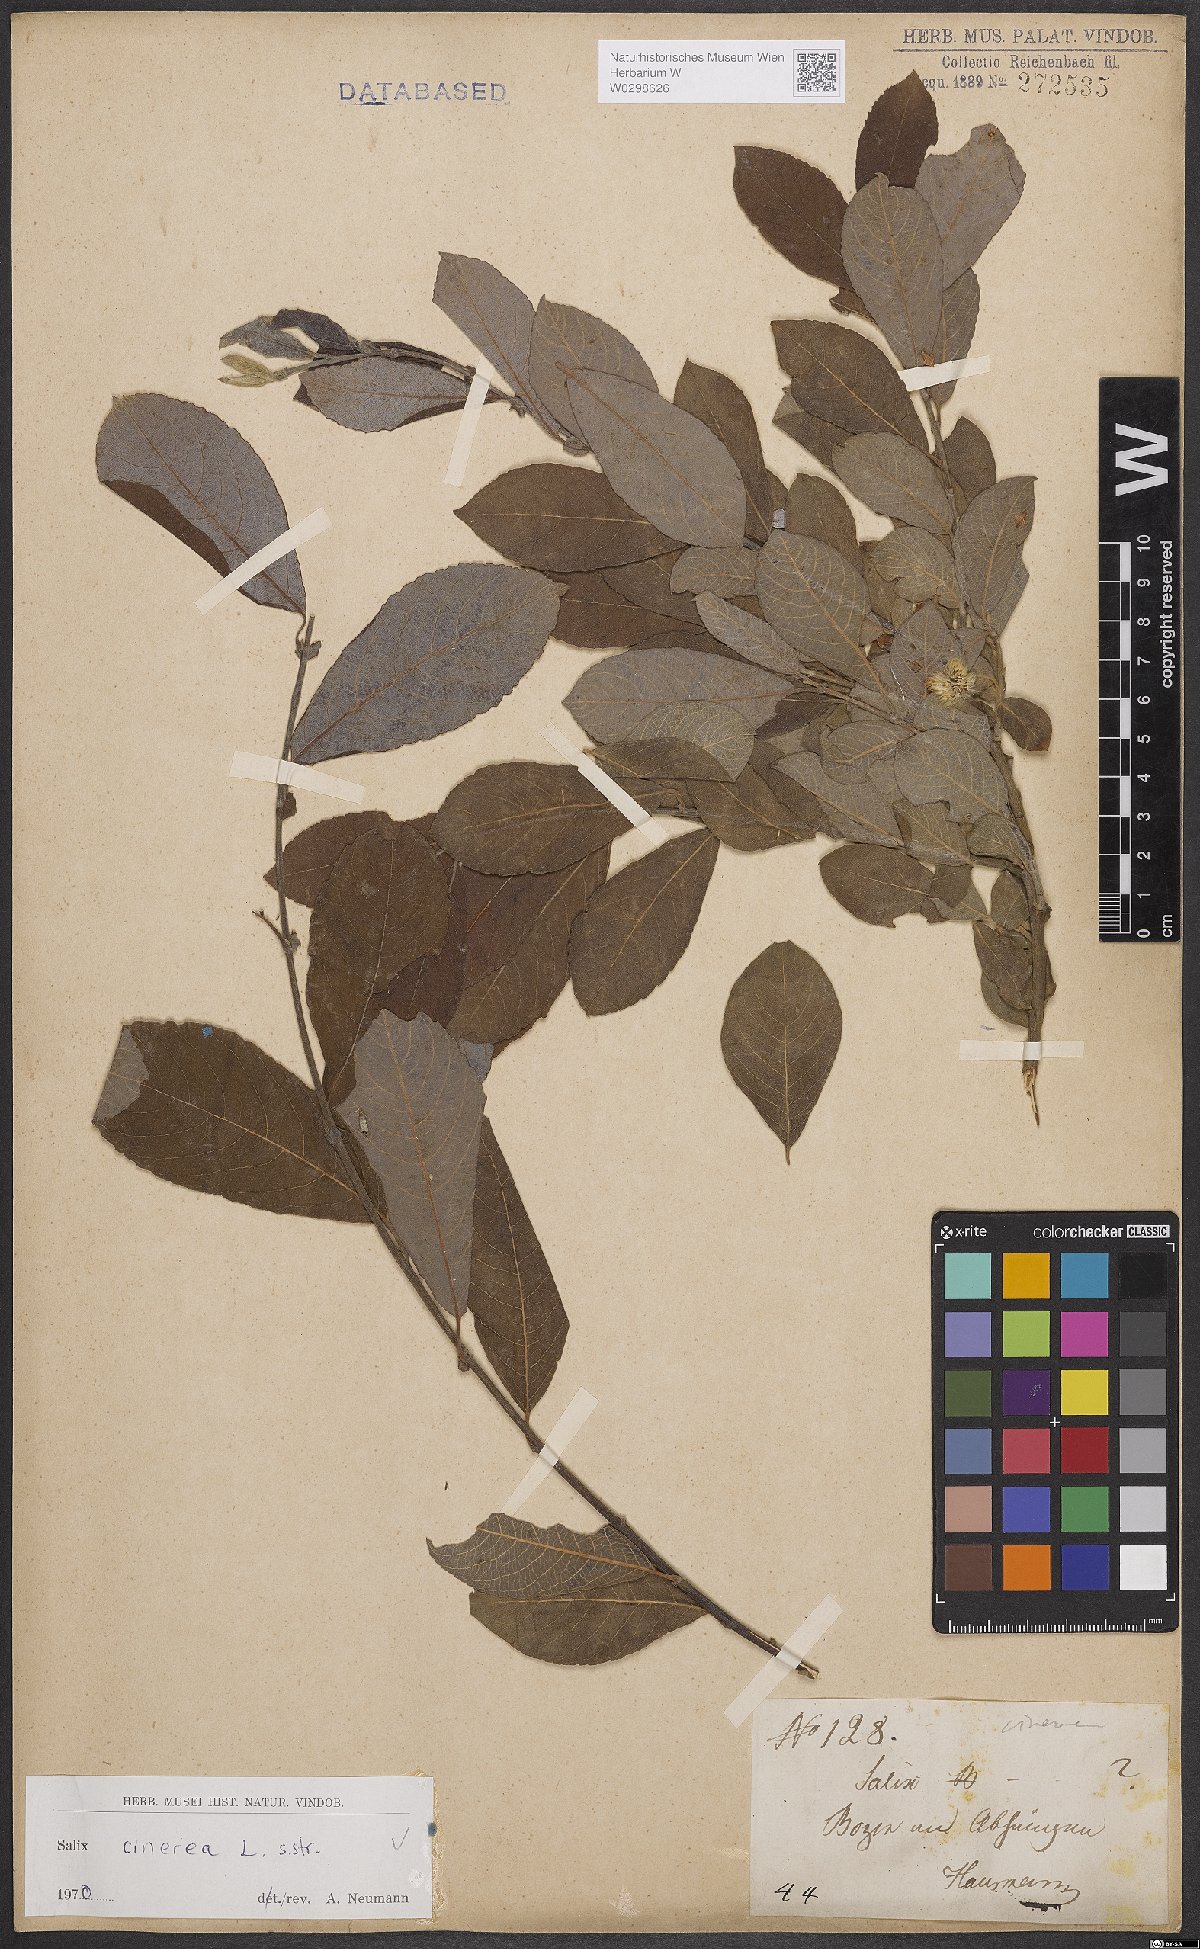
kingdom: Plantae
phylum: Tracheophyta
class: Magnoliopsida
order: Malpighiales
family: Salicaceae
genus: Salix
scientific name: Salix cinerea
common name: Common sallow
